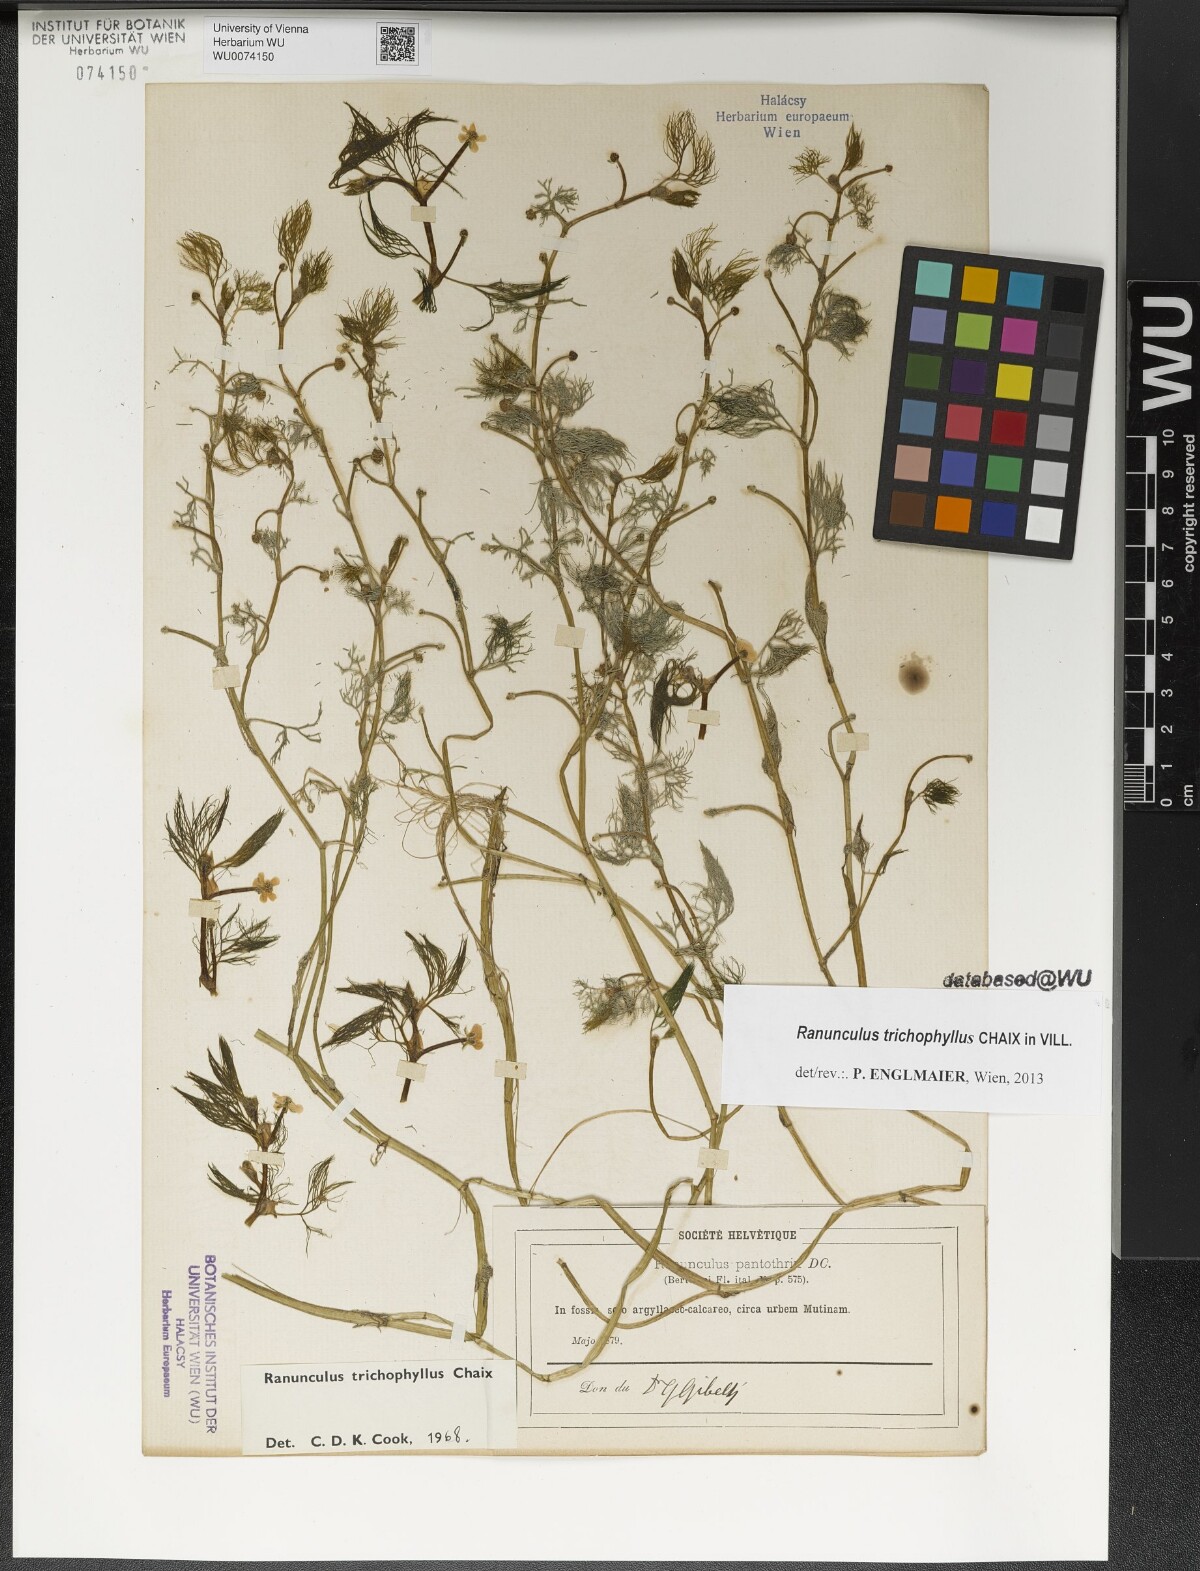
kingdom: Plantae
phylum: Tracheophyta
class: Magnoliopsida
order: Ranunculales
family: Ranunculaceae
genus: Ranunculus
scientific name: Ranunculus trichophyllus
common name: Thread-leaved water-crowfoot
